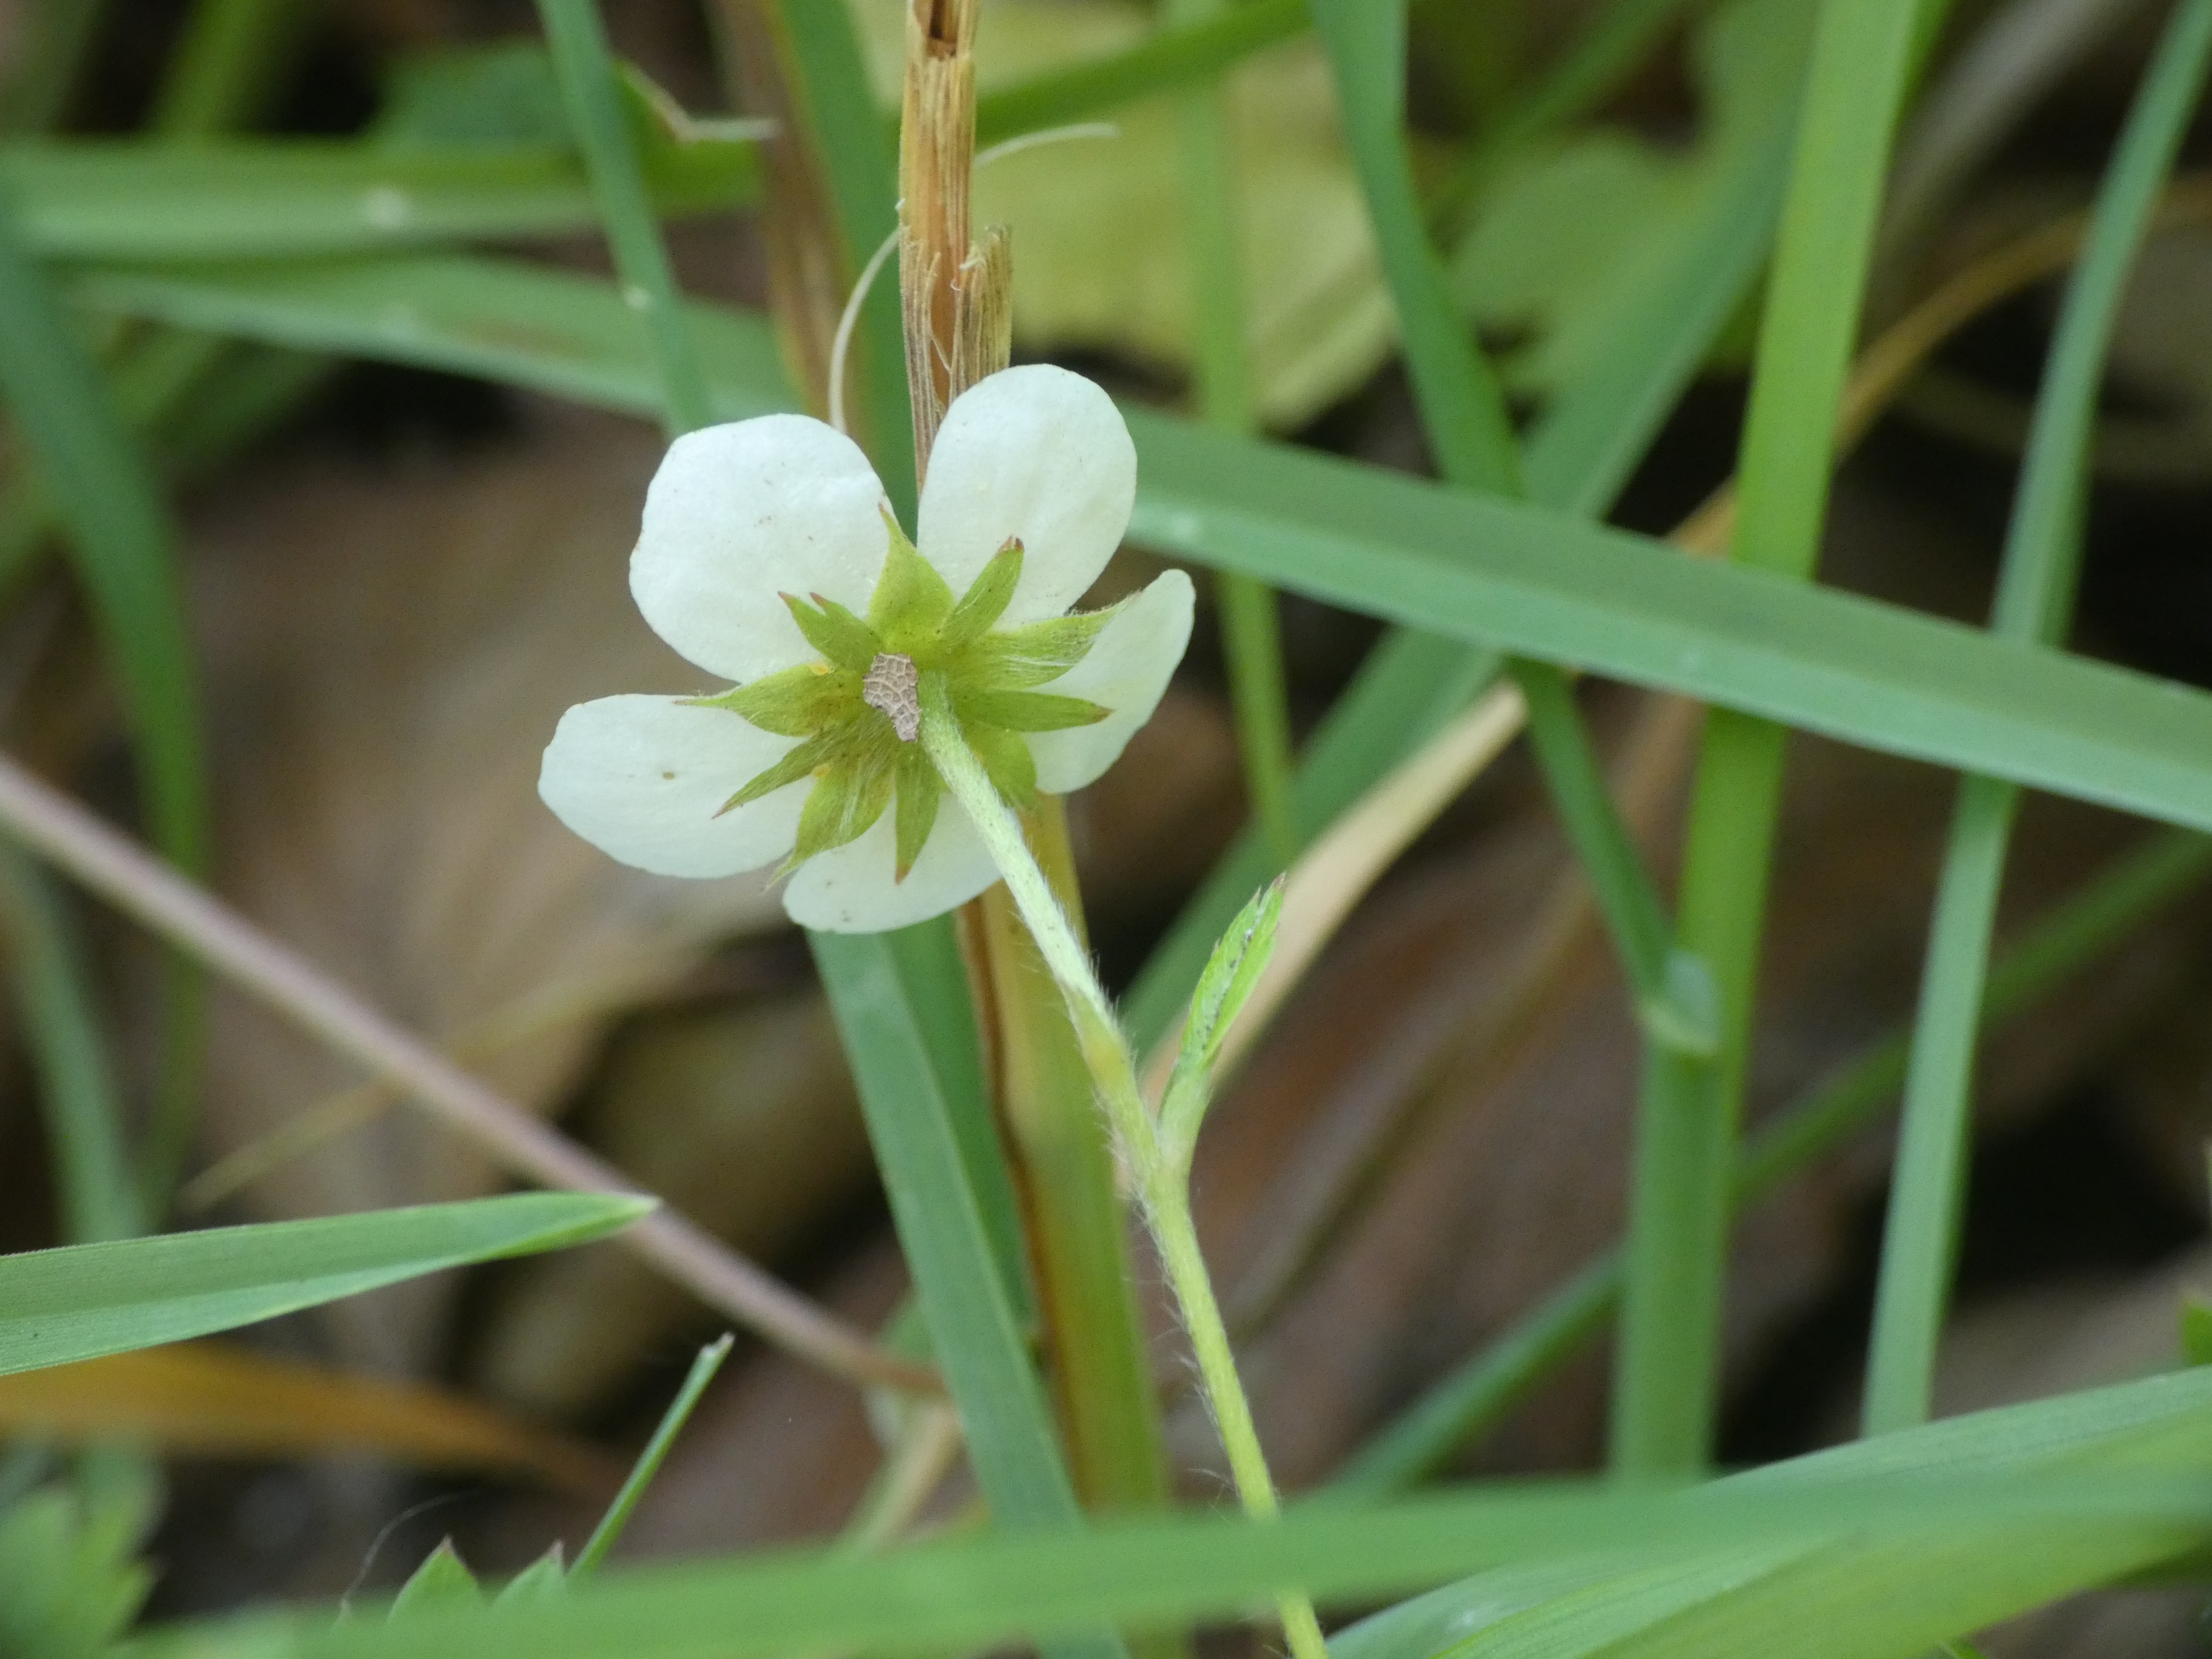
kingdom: Plantae
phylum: Tracheophyta
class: Magnoliopsida
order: Rosales
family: Rosaceae
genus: Fragaria
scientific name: Fragaria vesca
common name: Skov-jordbær
